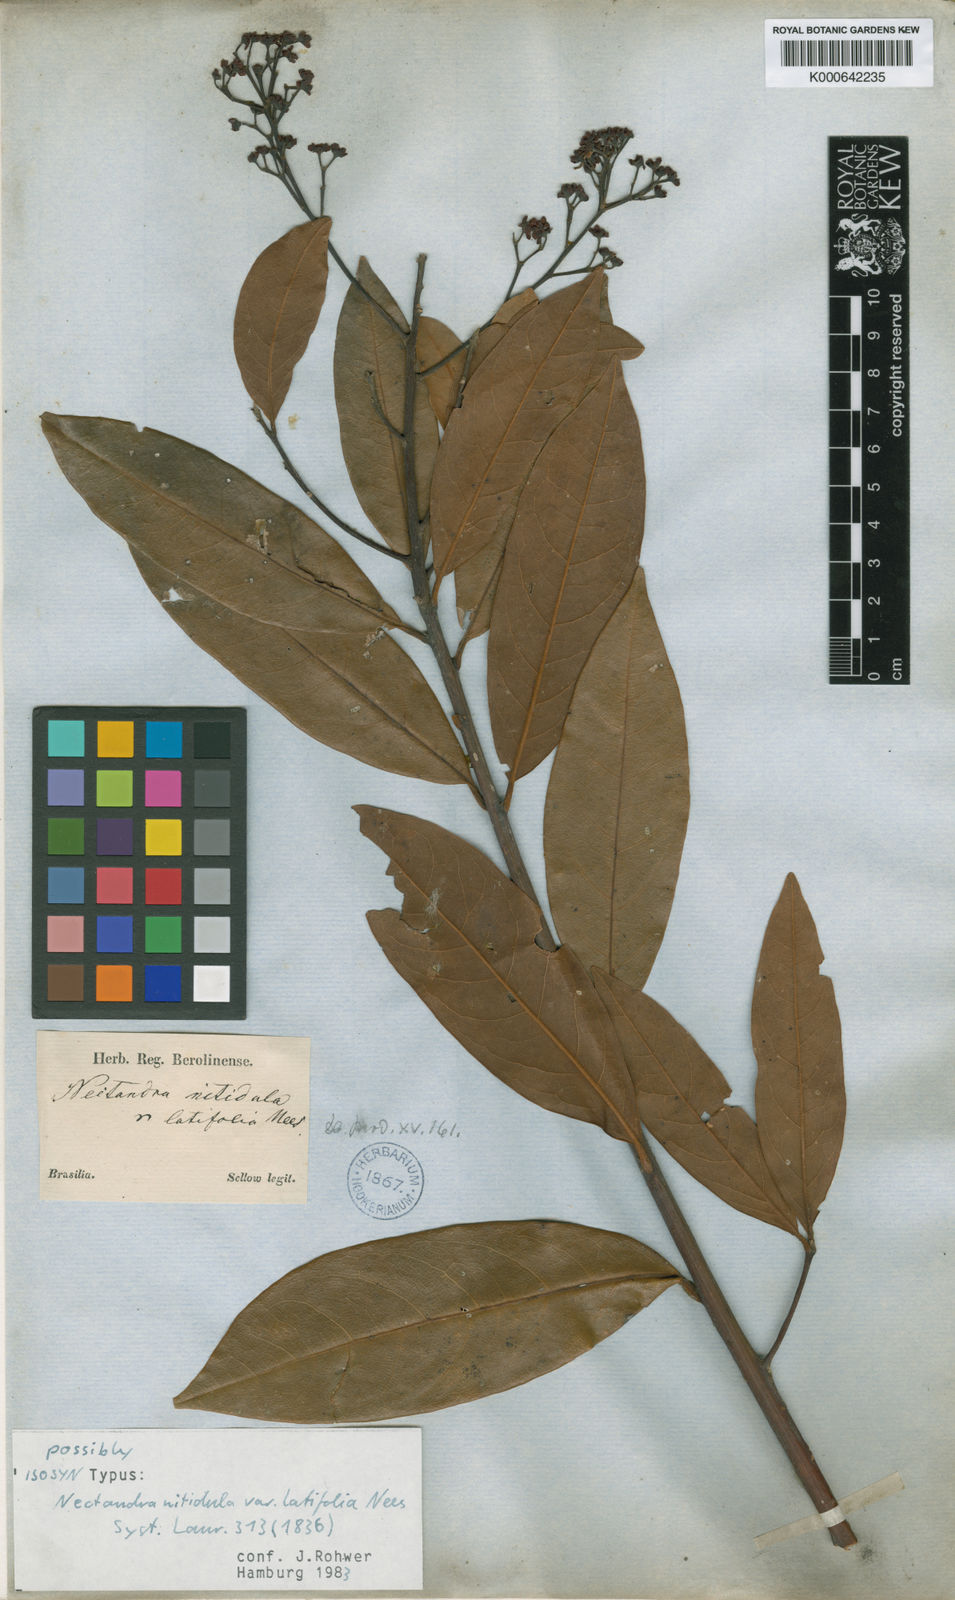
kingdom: Plantae
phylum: Tracheophyta
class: Magnoliopsida
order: Laurales
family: Lauraceae
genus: Nectandra
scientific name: Nectandra
